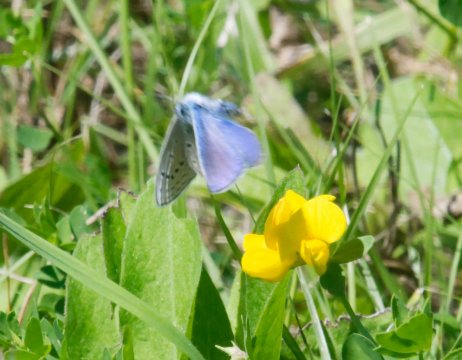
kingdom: Animalia
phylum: Arthropoda
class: Insecta
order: Lepidoptera
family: Lycaenidae
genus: Polyommatus
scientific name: Polyommatus icarus
